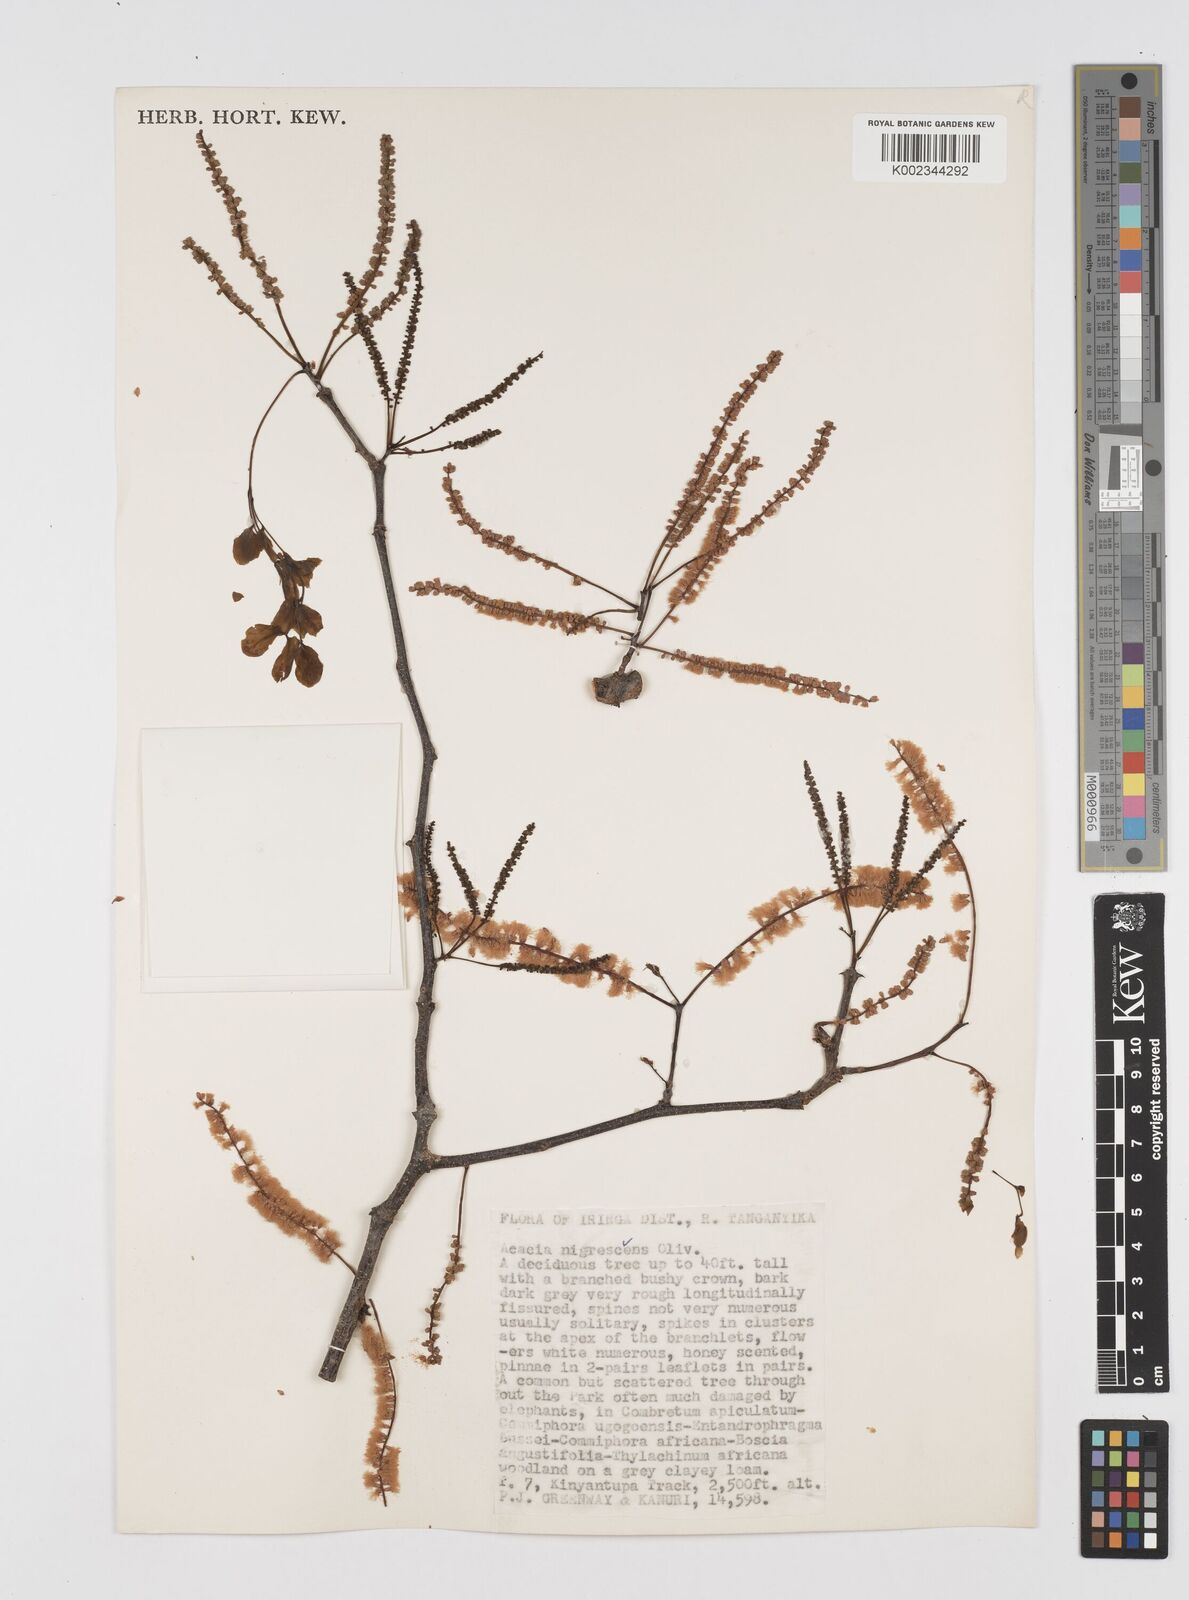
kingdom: Plantae
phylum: Tracheophyta
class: Magnoliopsida
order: Fabales
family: Fabaceae
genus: Senegalia
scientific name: Senegalia nigrescens
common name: Knobthorn
